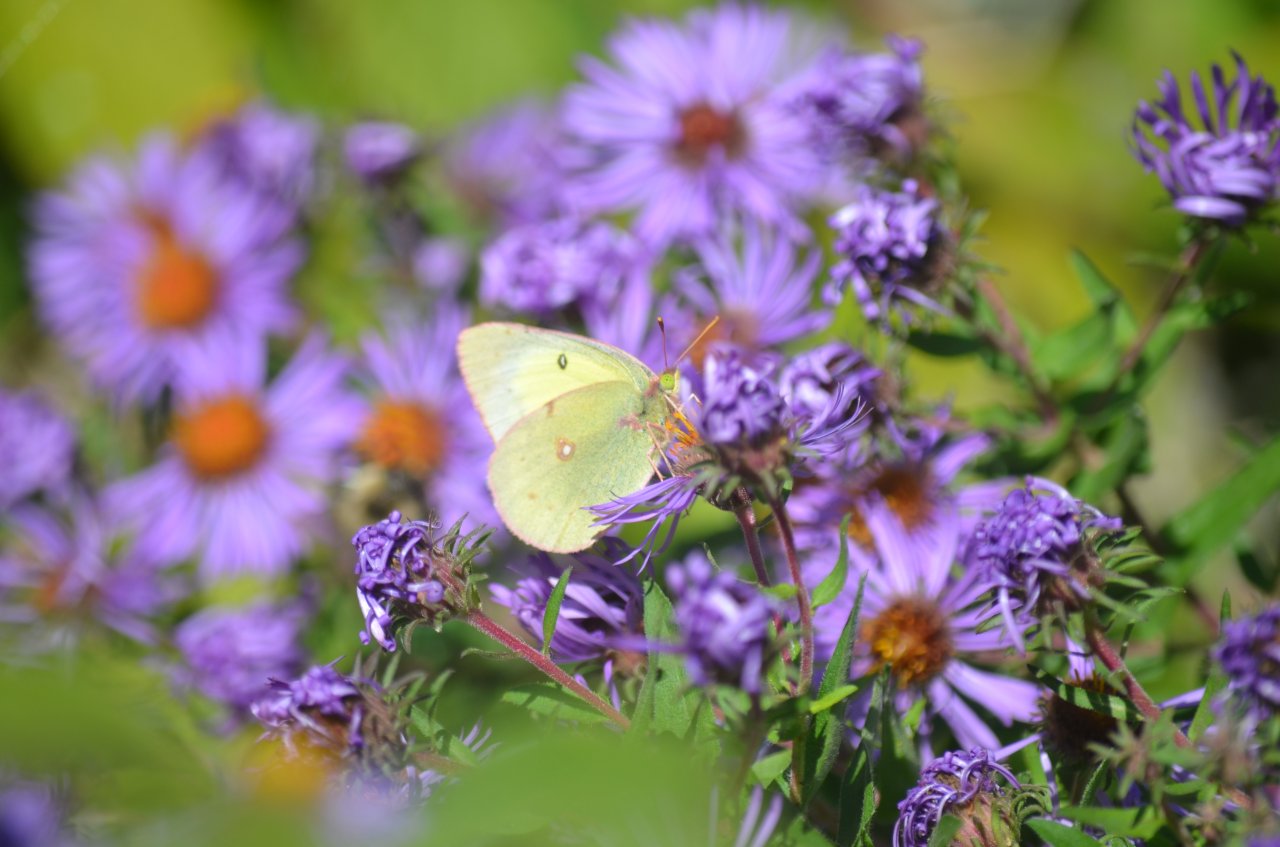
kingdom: Animalia
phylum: Arthropoda
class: Insecta
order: Lepidoptera
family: Pieridae
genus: Colias
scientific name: Colias philodice
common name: Clouded Sulphur
